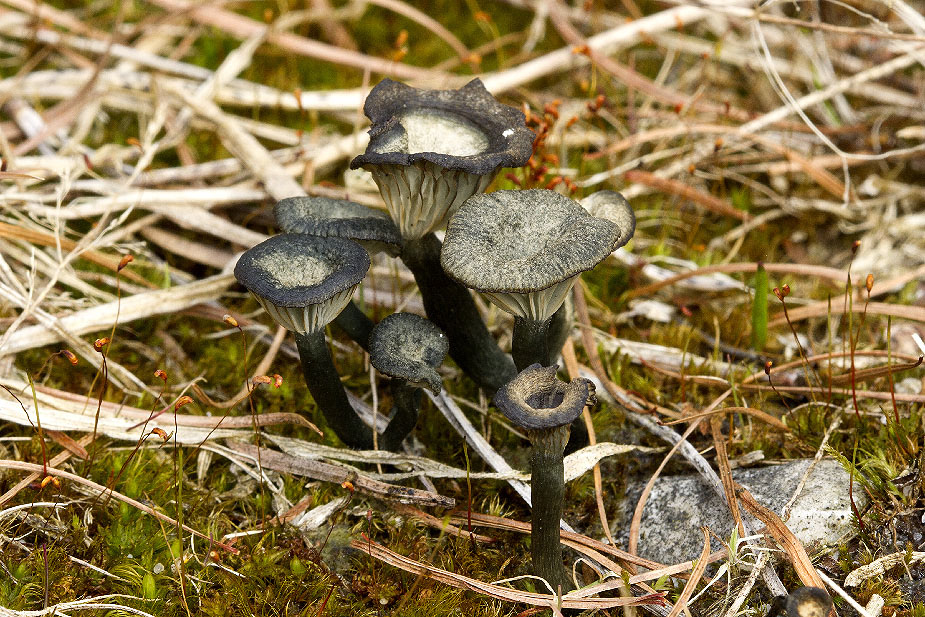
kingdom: Fungi
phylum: Basidiomycota
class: Agaricomycetes
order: Agaricales
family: Hygrophoraceae
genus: Arrhenia
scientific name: Arrhenia chlorocyanea
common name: blågrøn fontænehat
